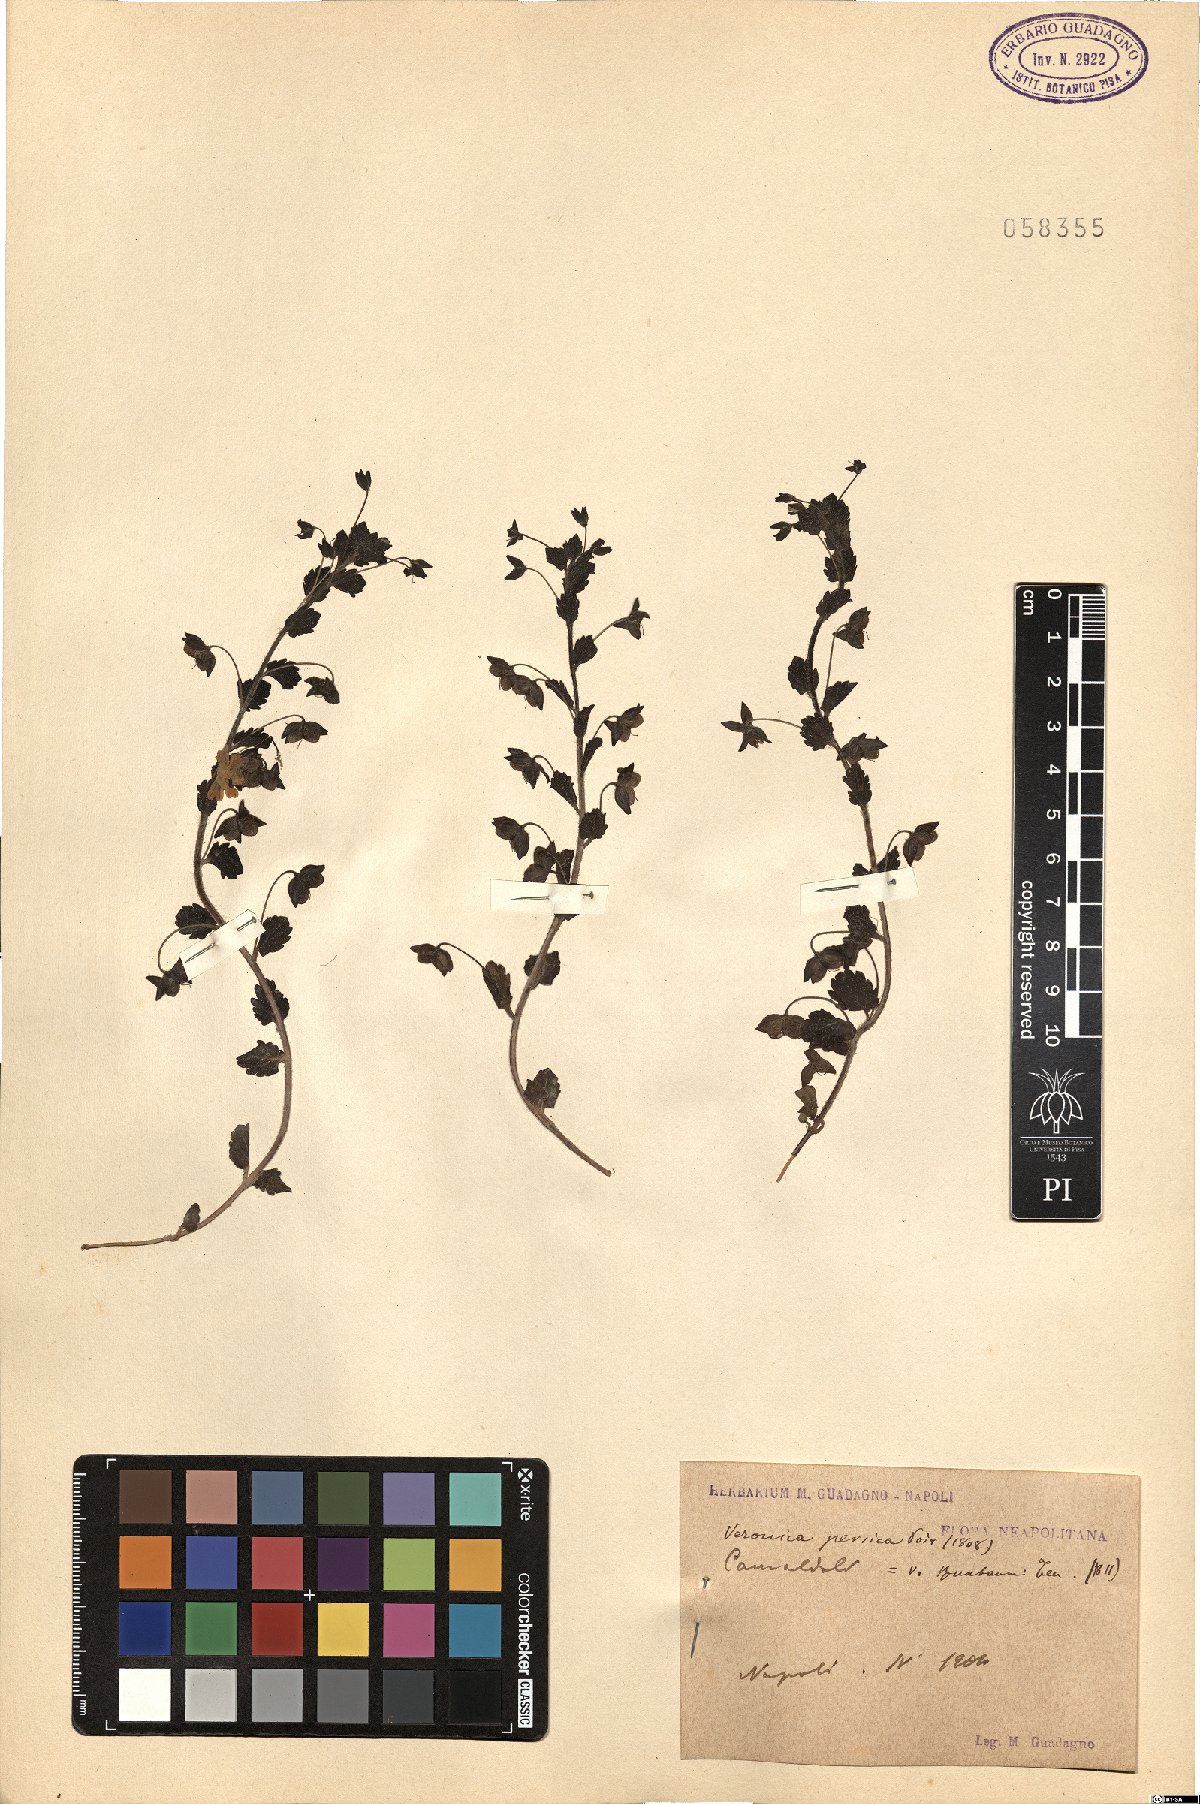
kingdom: Plantae
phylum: Tracheophyta
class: Magnoliopsida
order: Lamiales
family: Plantaginaceae
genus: Veronica
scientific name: Veronica persica
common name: Common field-speedwell
